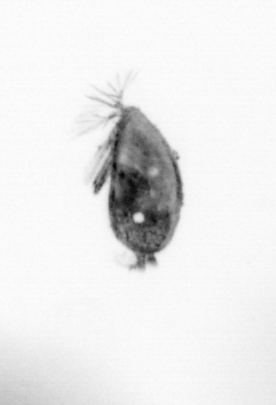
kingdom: Animalia
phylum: Arthropoda
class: Maxillopoda
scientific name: Maxillopoda
